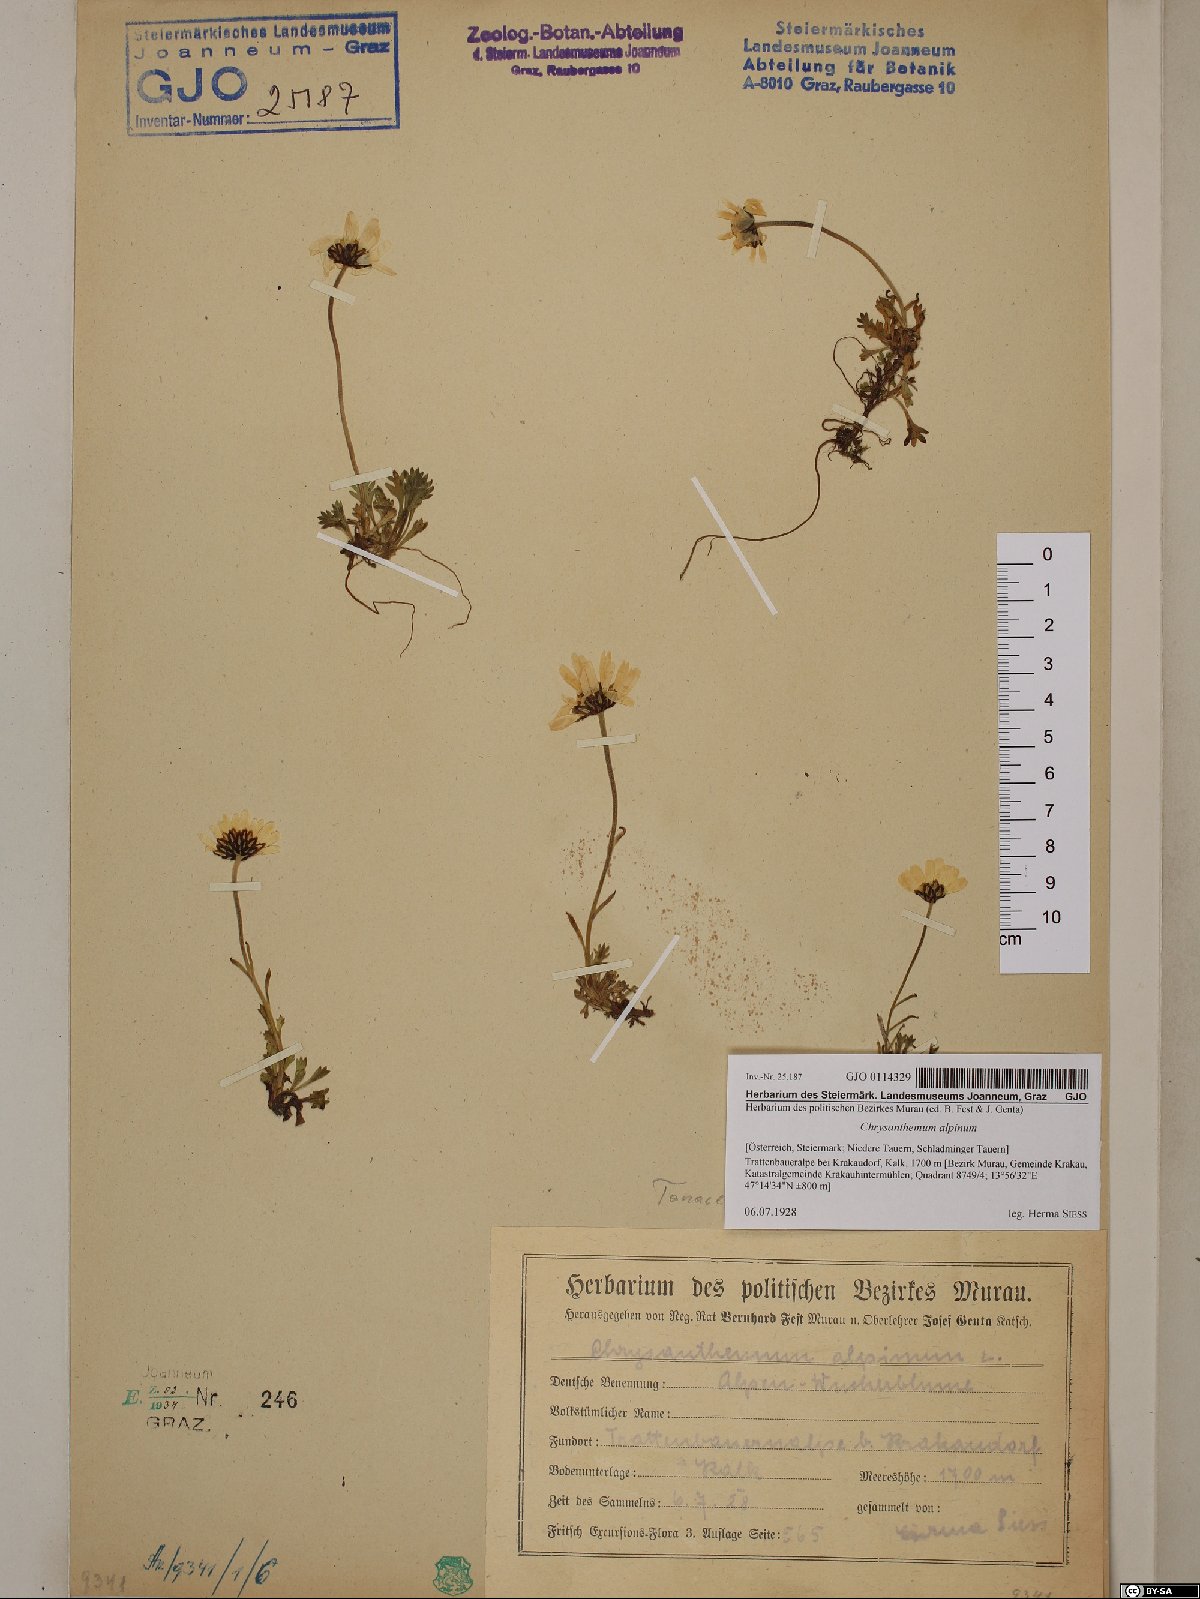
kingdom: Plantae
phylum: Tracheophyta
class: Magnoliopsida
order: Asterales
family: Asteraceae
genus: Leucanthemopsis
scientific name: Leucanthemopsis alpina
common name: Alpine moon daisy
